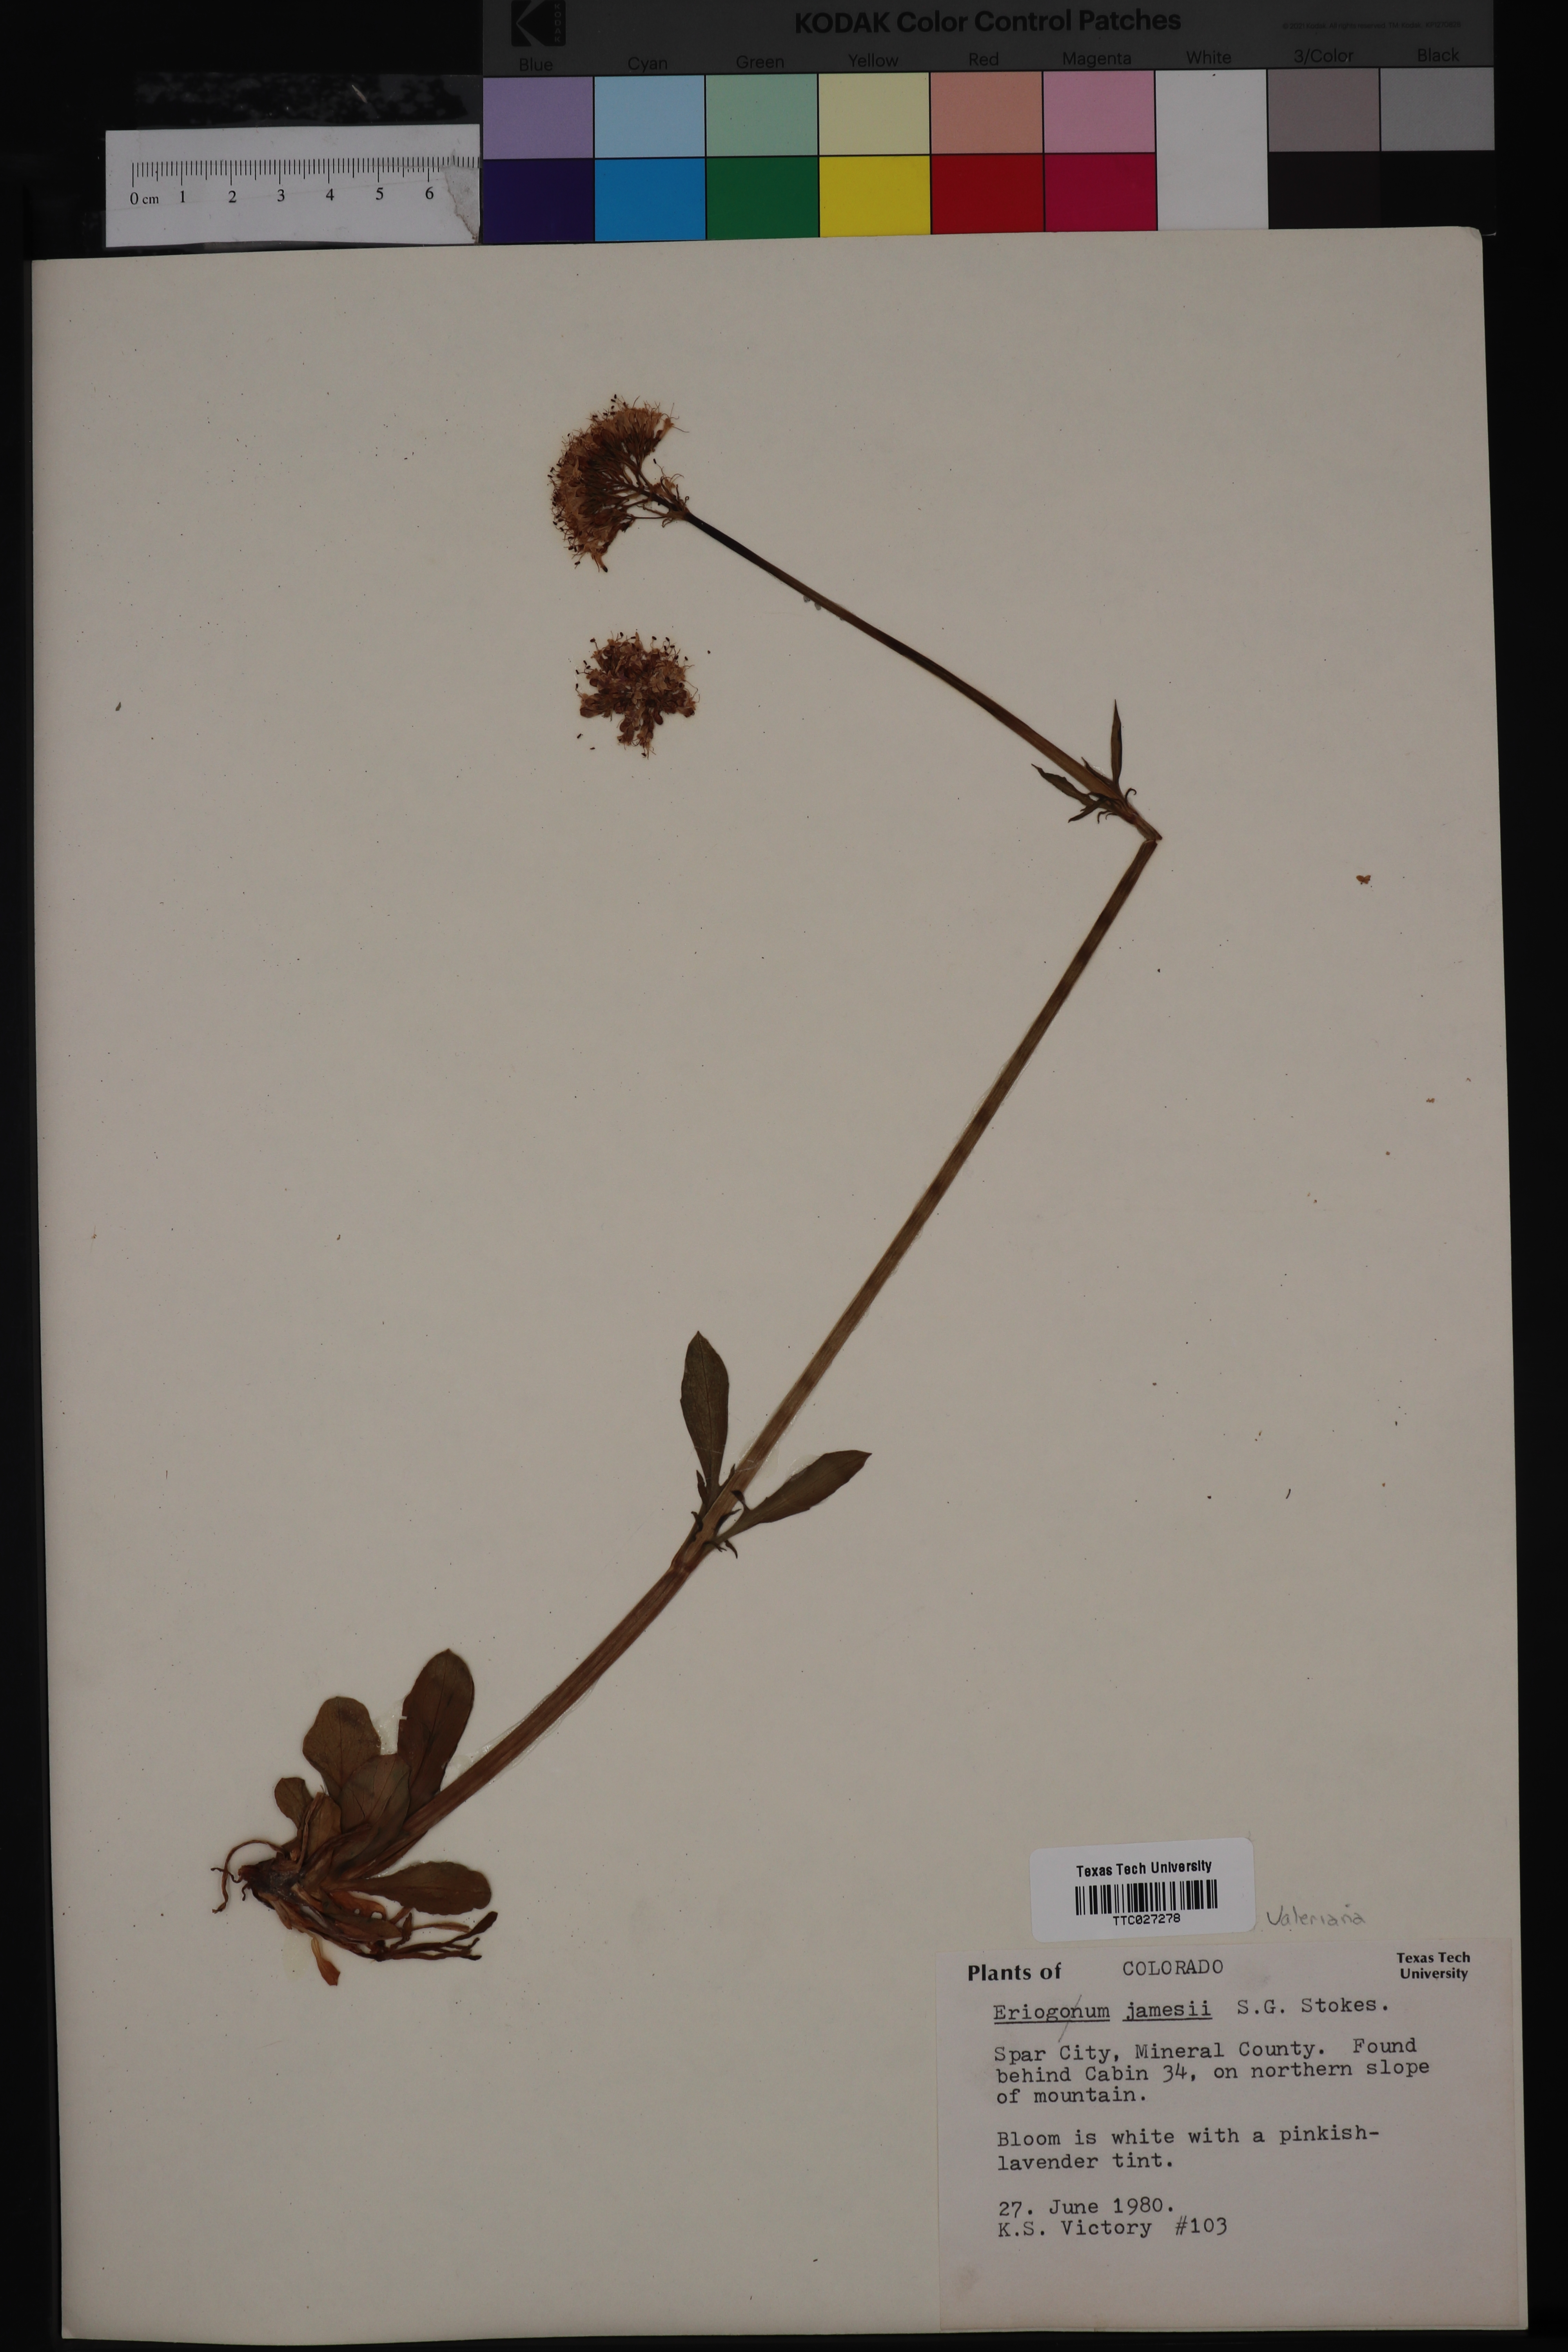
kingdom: Plantae
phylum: Tracheophyta
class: Magnoliopsida
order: Caryophyllales
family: Polygonaceae
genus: Eriogonum
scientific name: Eriogonum jamesii
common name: Antelope-sage
